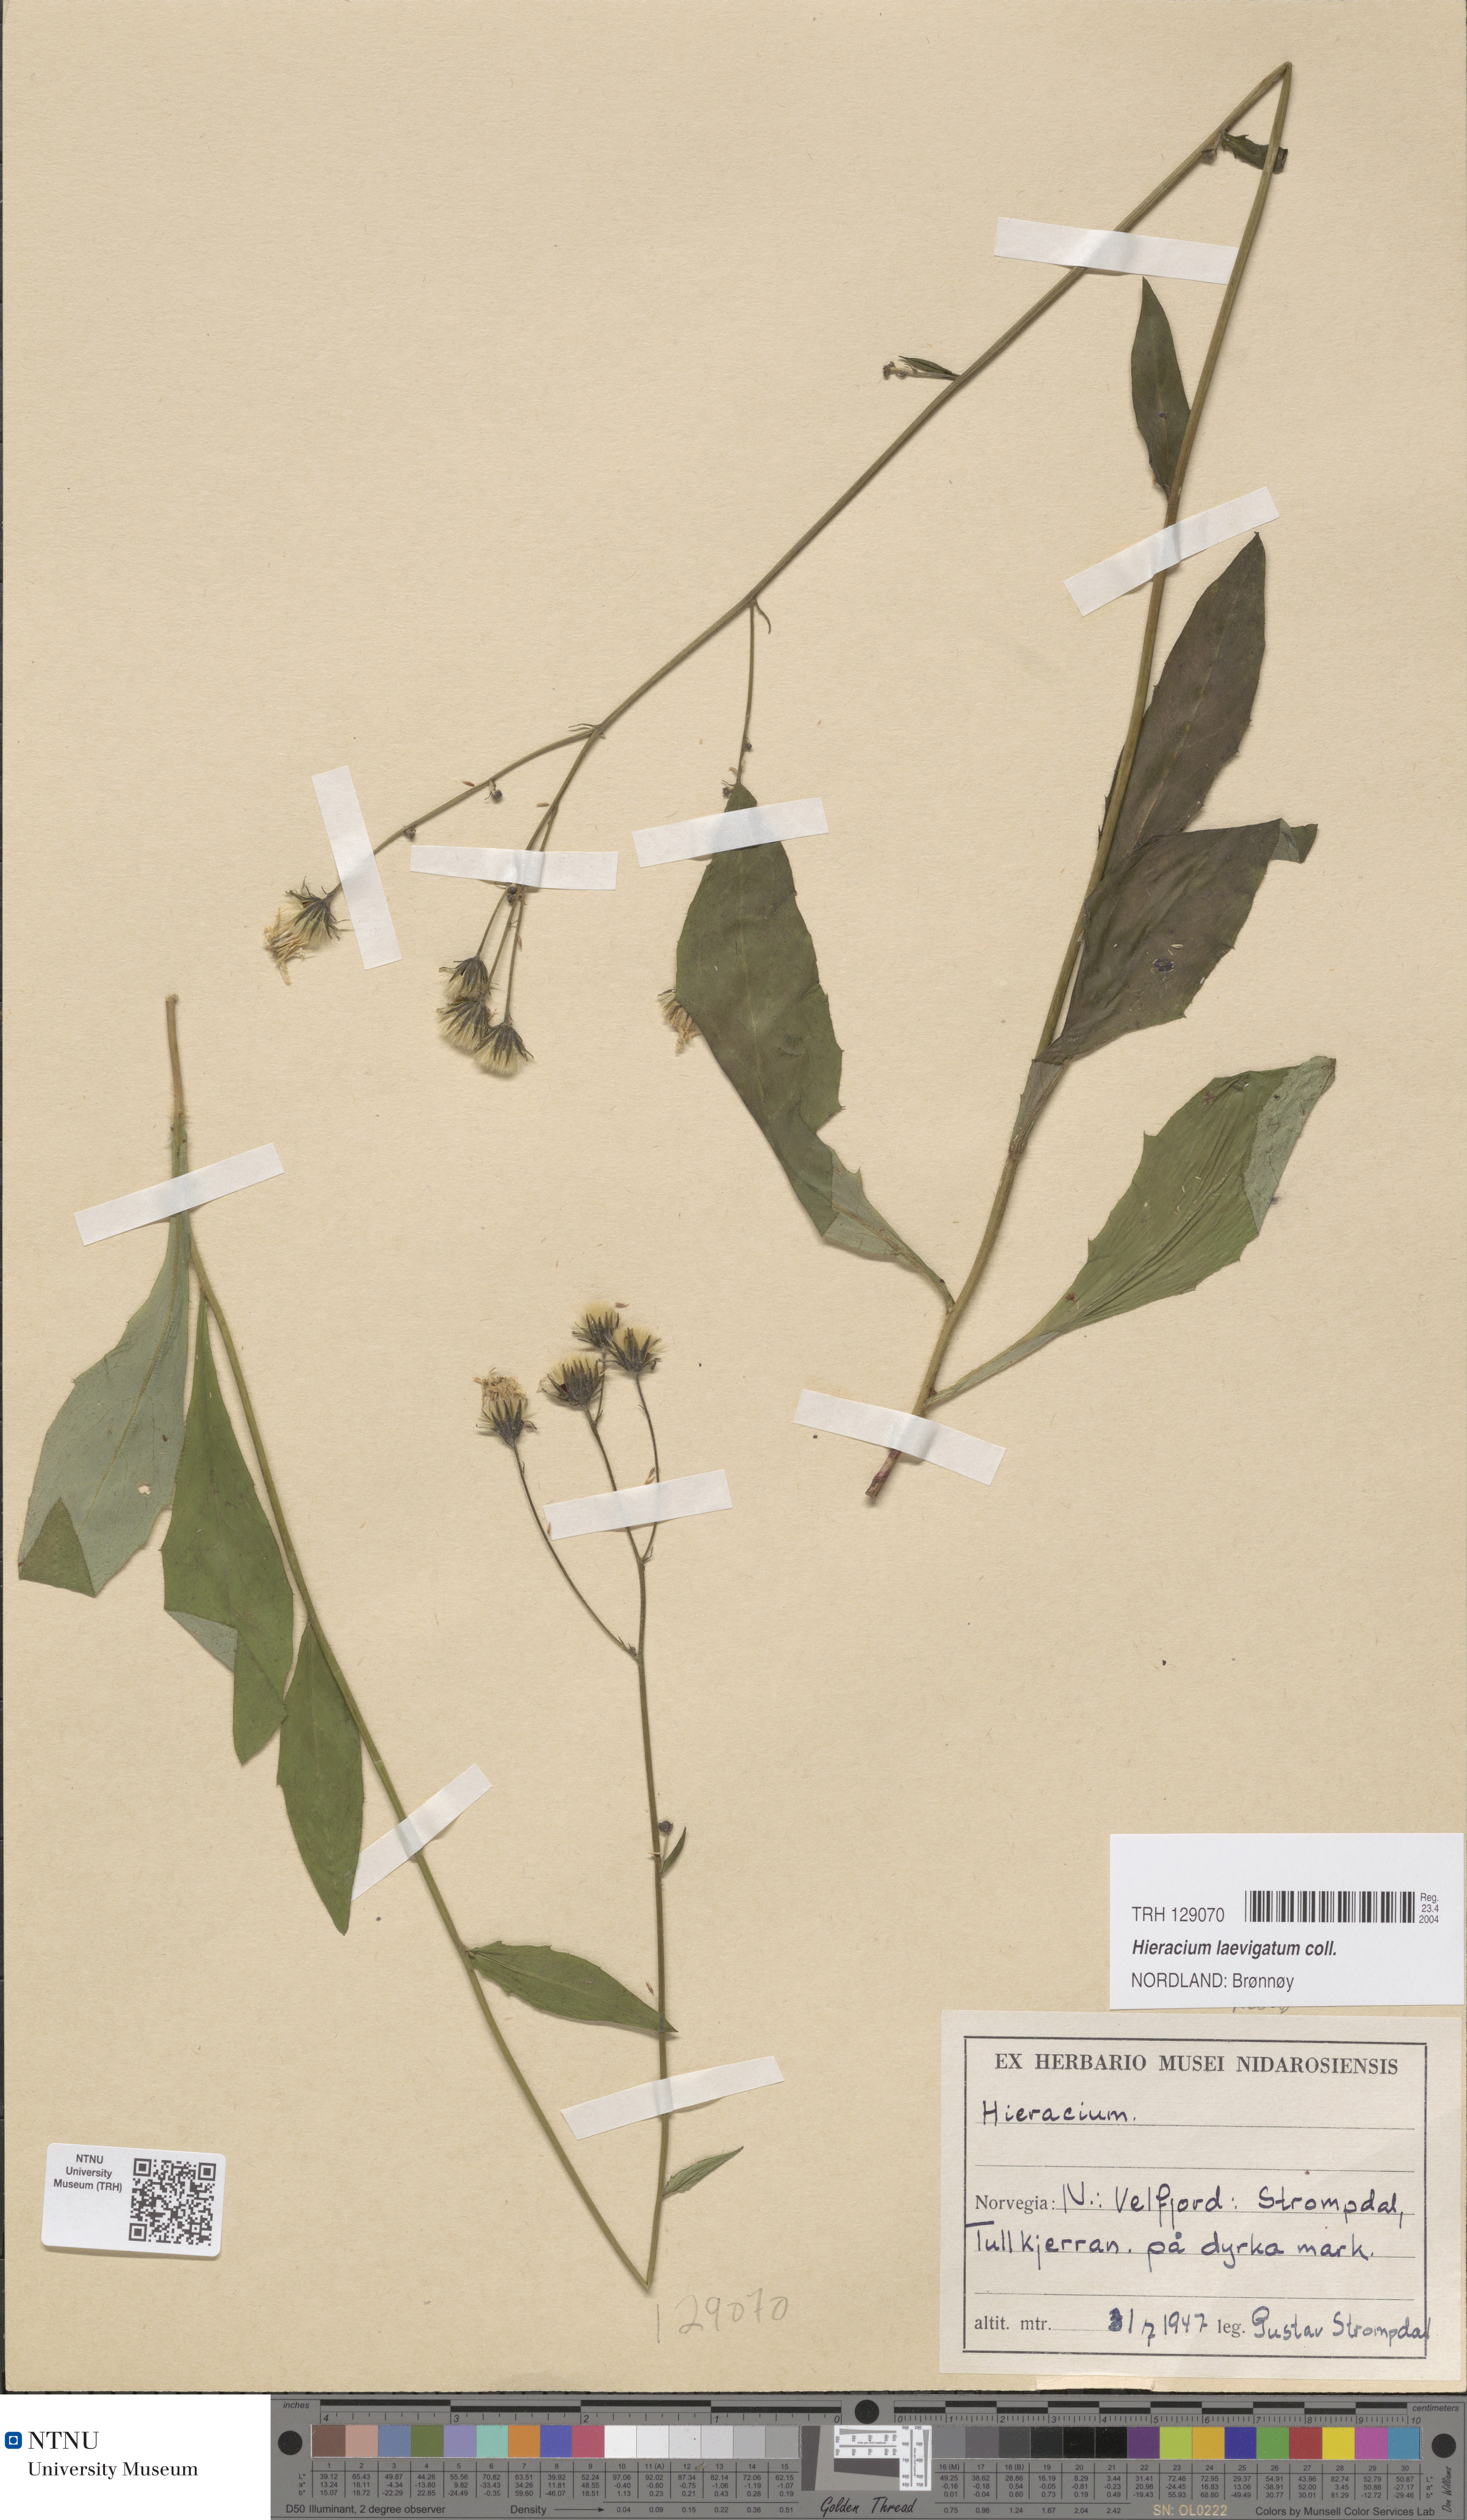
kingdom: Plantae
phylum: Tracheophyta
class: Magnoliopsida
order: Asterales
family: Asteraceae
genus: Hieracium
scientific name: Hieracium laevigatum
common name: Smooth hawkweed
